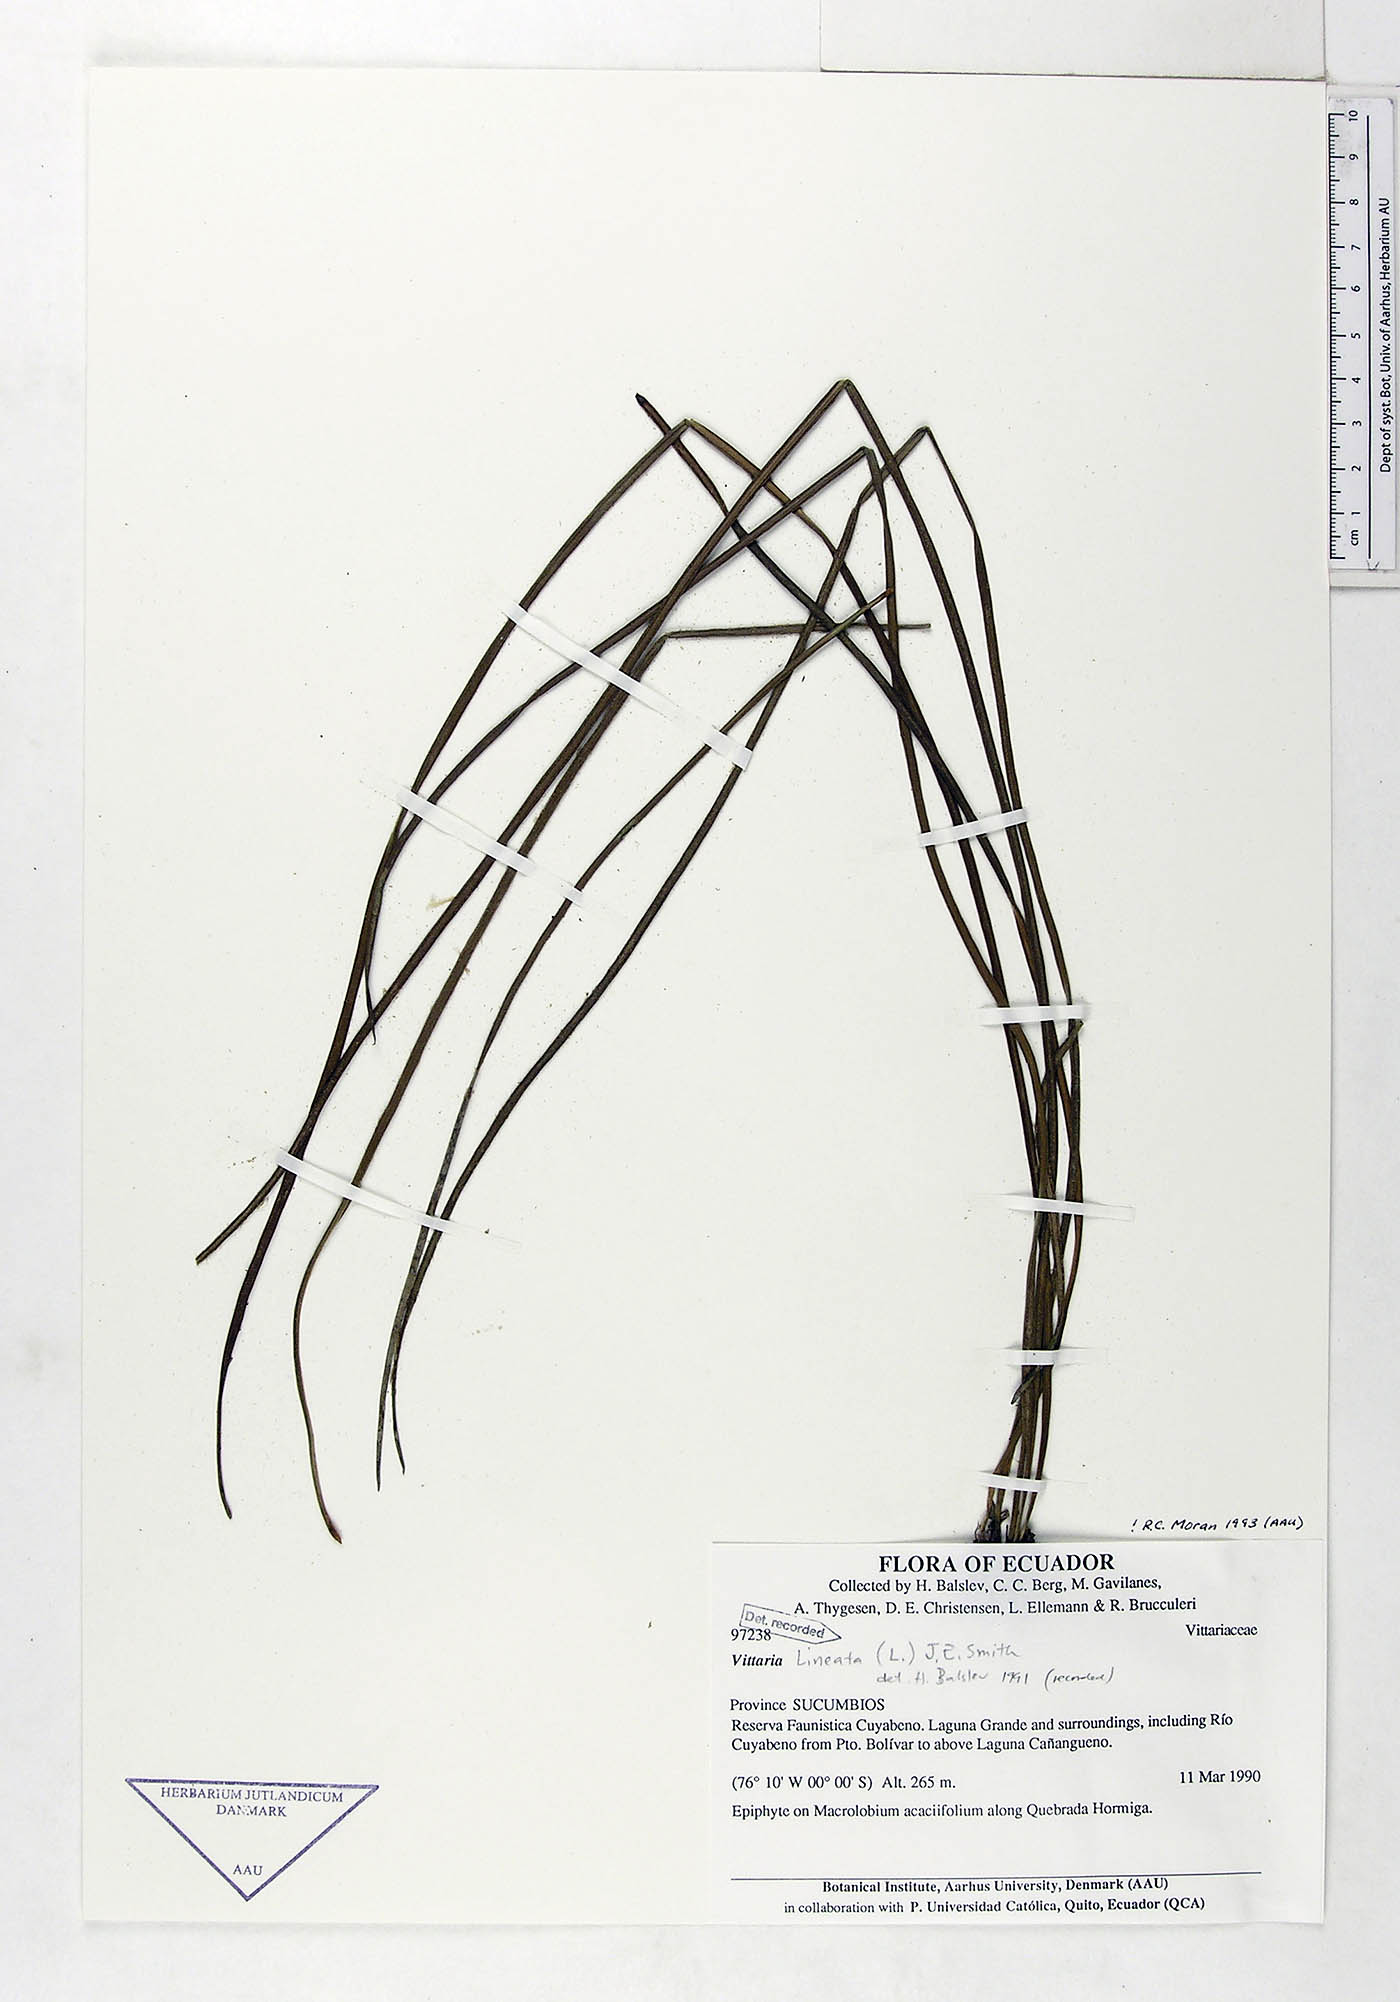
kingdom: Plantae
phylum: Tracheophyta
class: Polypodiopsida
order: Polypodiales
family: Pteridaceae
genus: Radiovittaria
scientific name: Radiovittaria latifolia
